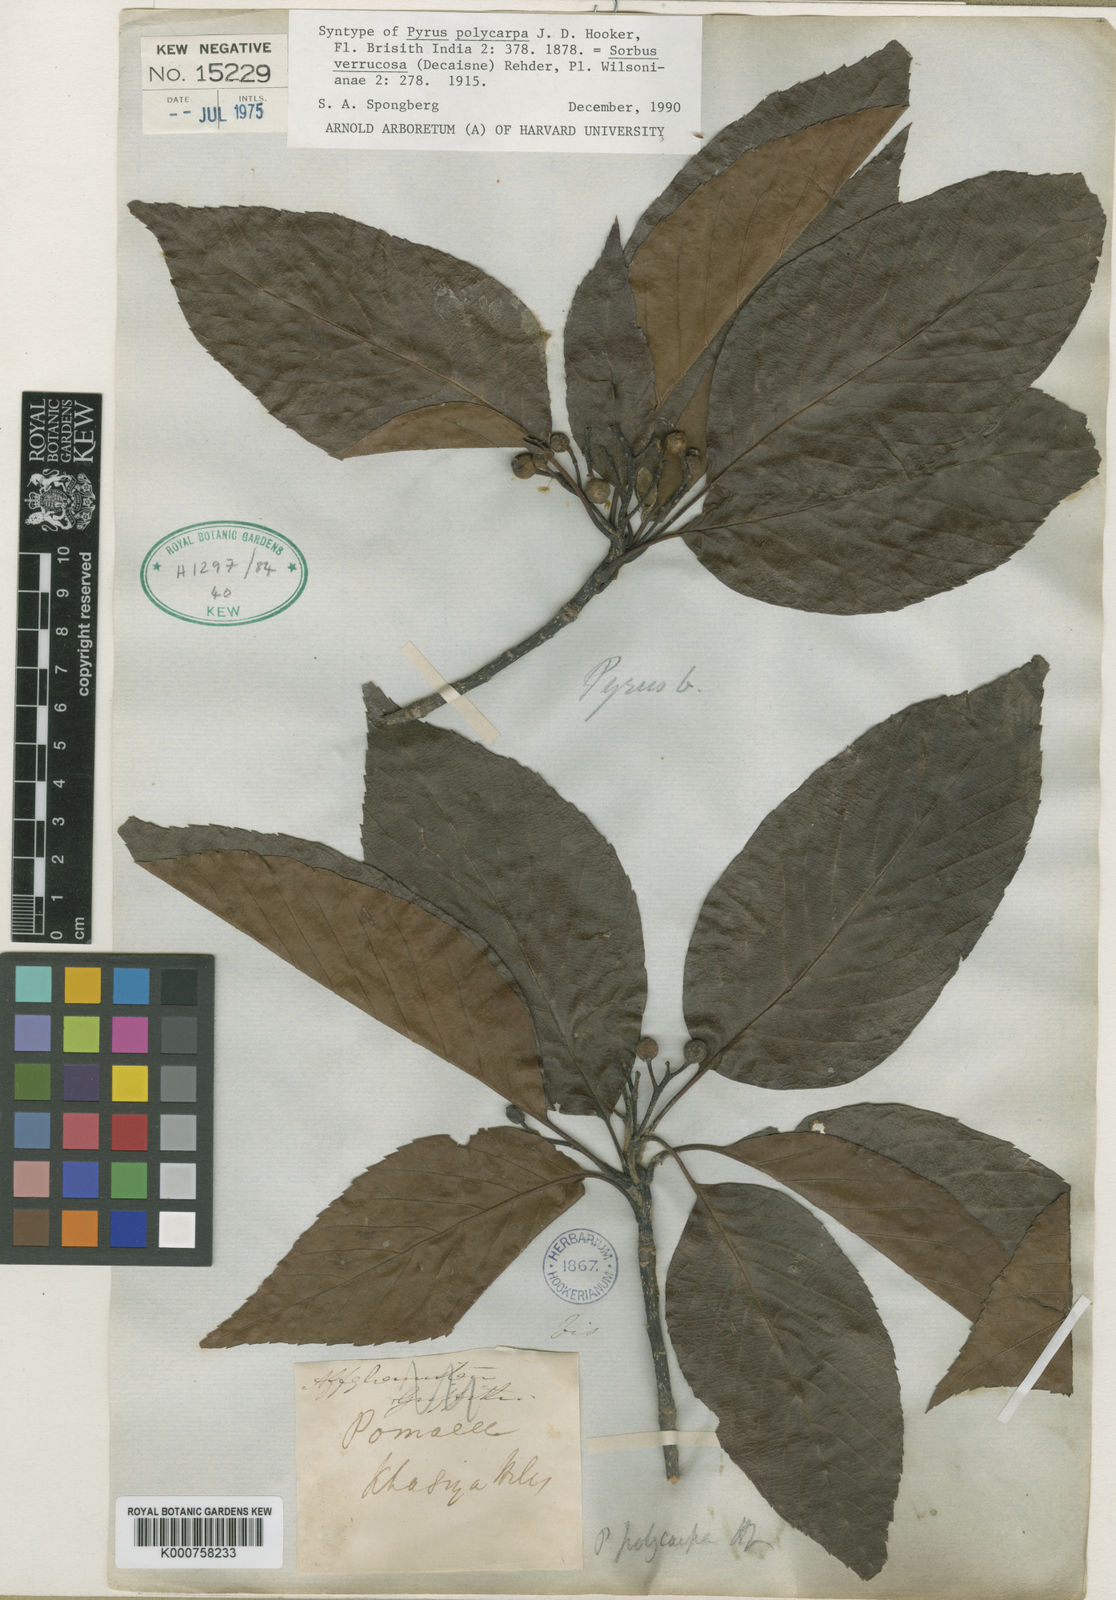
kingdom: Plantae
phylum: Tracheophyta
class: Magnoliopsida
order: Rosales
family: Rosaceae
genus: Micromeles
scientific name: Micromeles cuspidata
